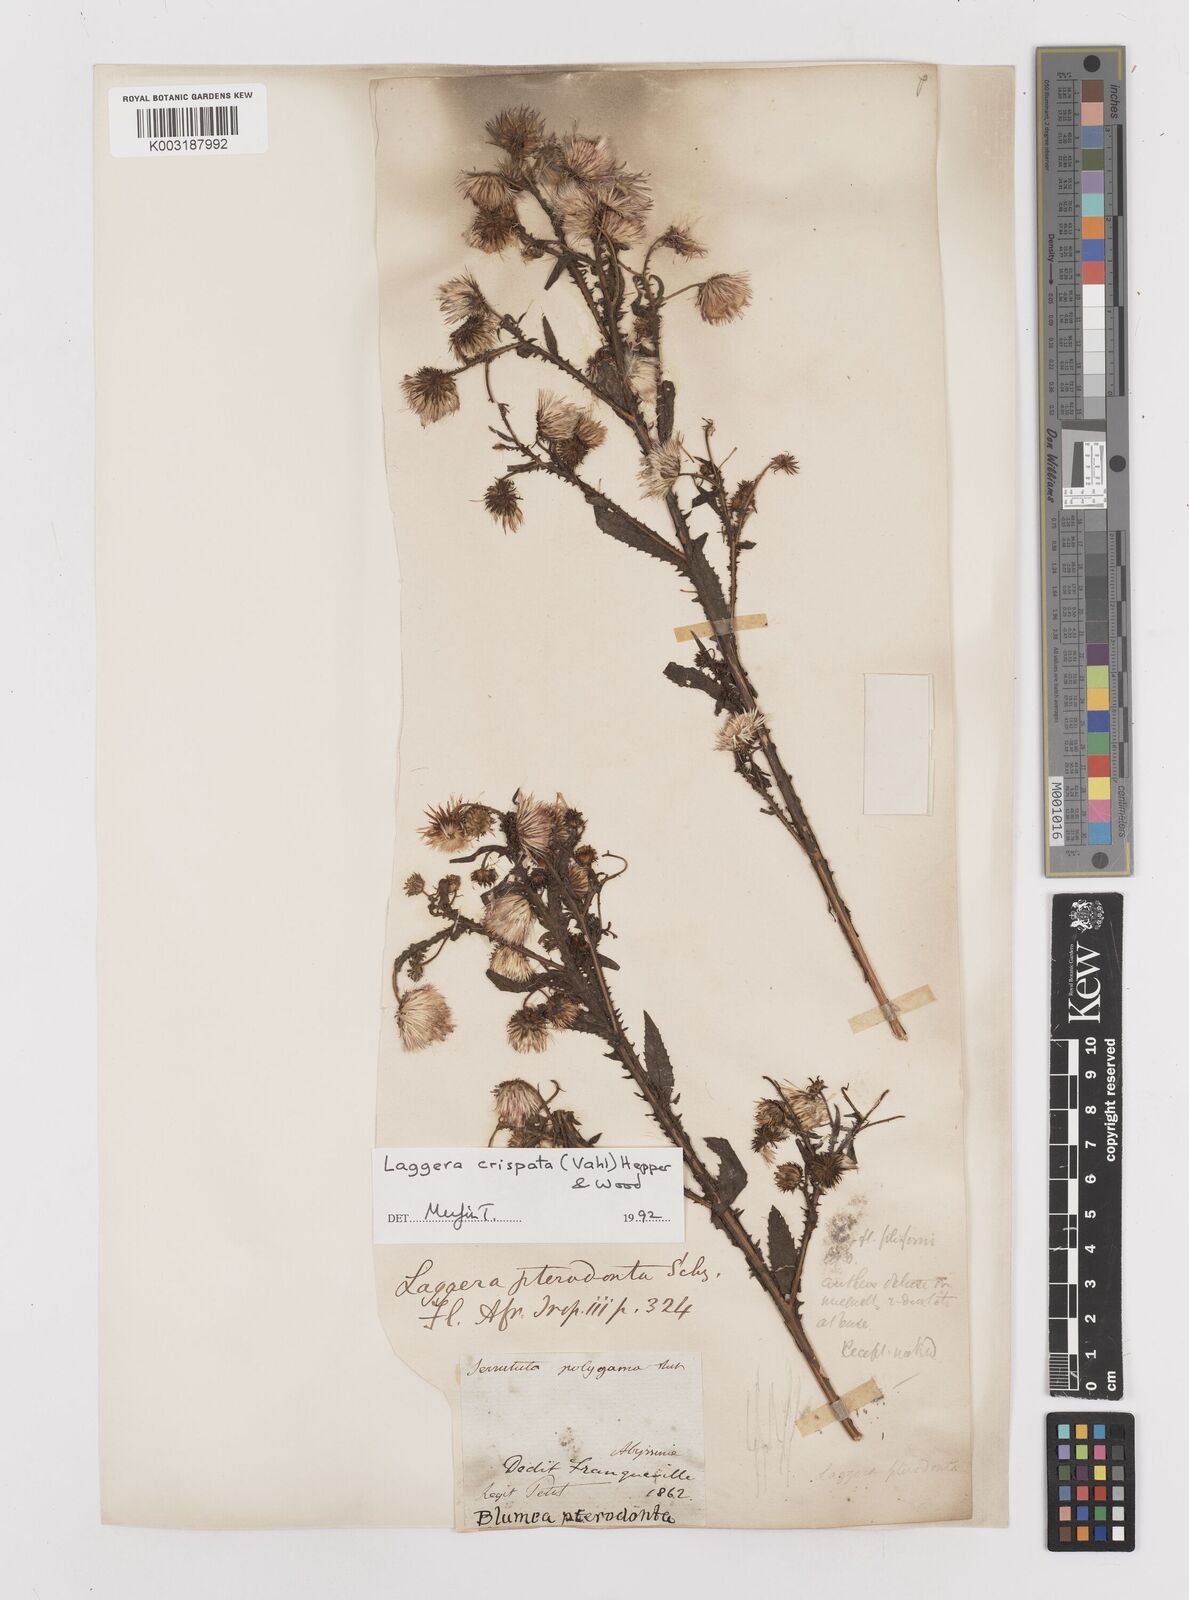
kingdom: Plantae
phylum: Tracheophyta
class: Magnoliopsida
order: Asterales
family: Asteraceae
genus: Laggera
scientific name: Laggera crispata
